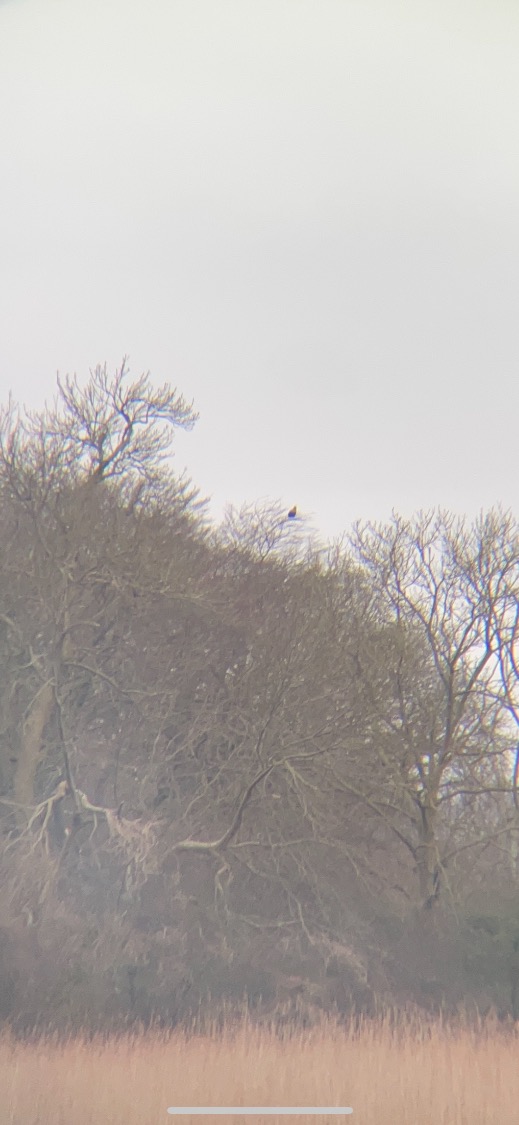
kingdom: Animalia
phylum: Chordata
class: Aves
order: Accipitriformes
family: Accipitridae
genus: Haliaeetus
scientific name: Haliaeetus albicilla
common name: Havørn
